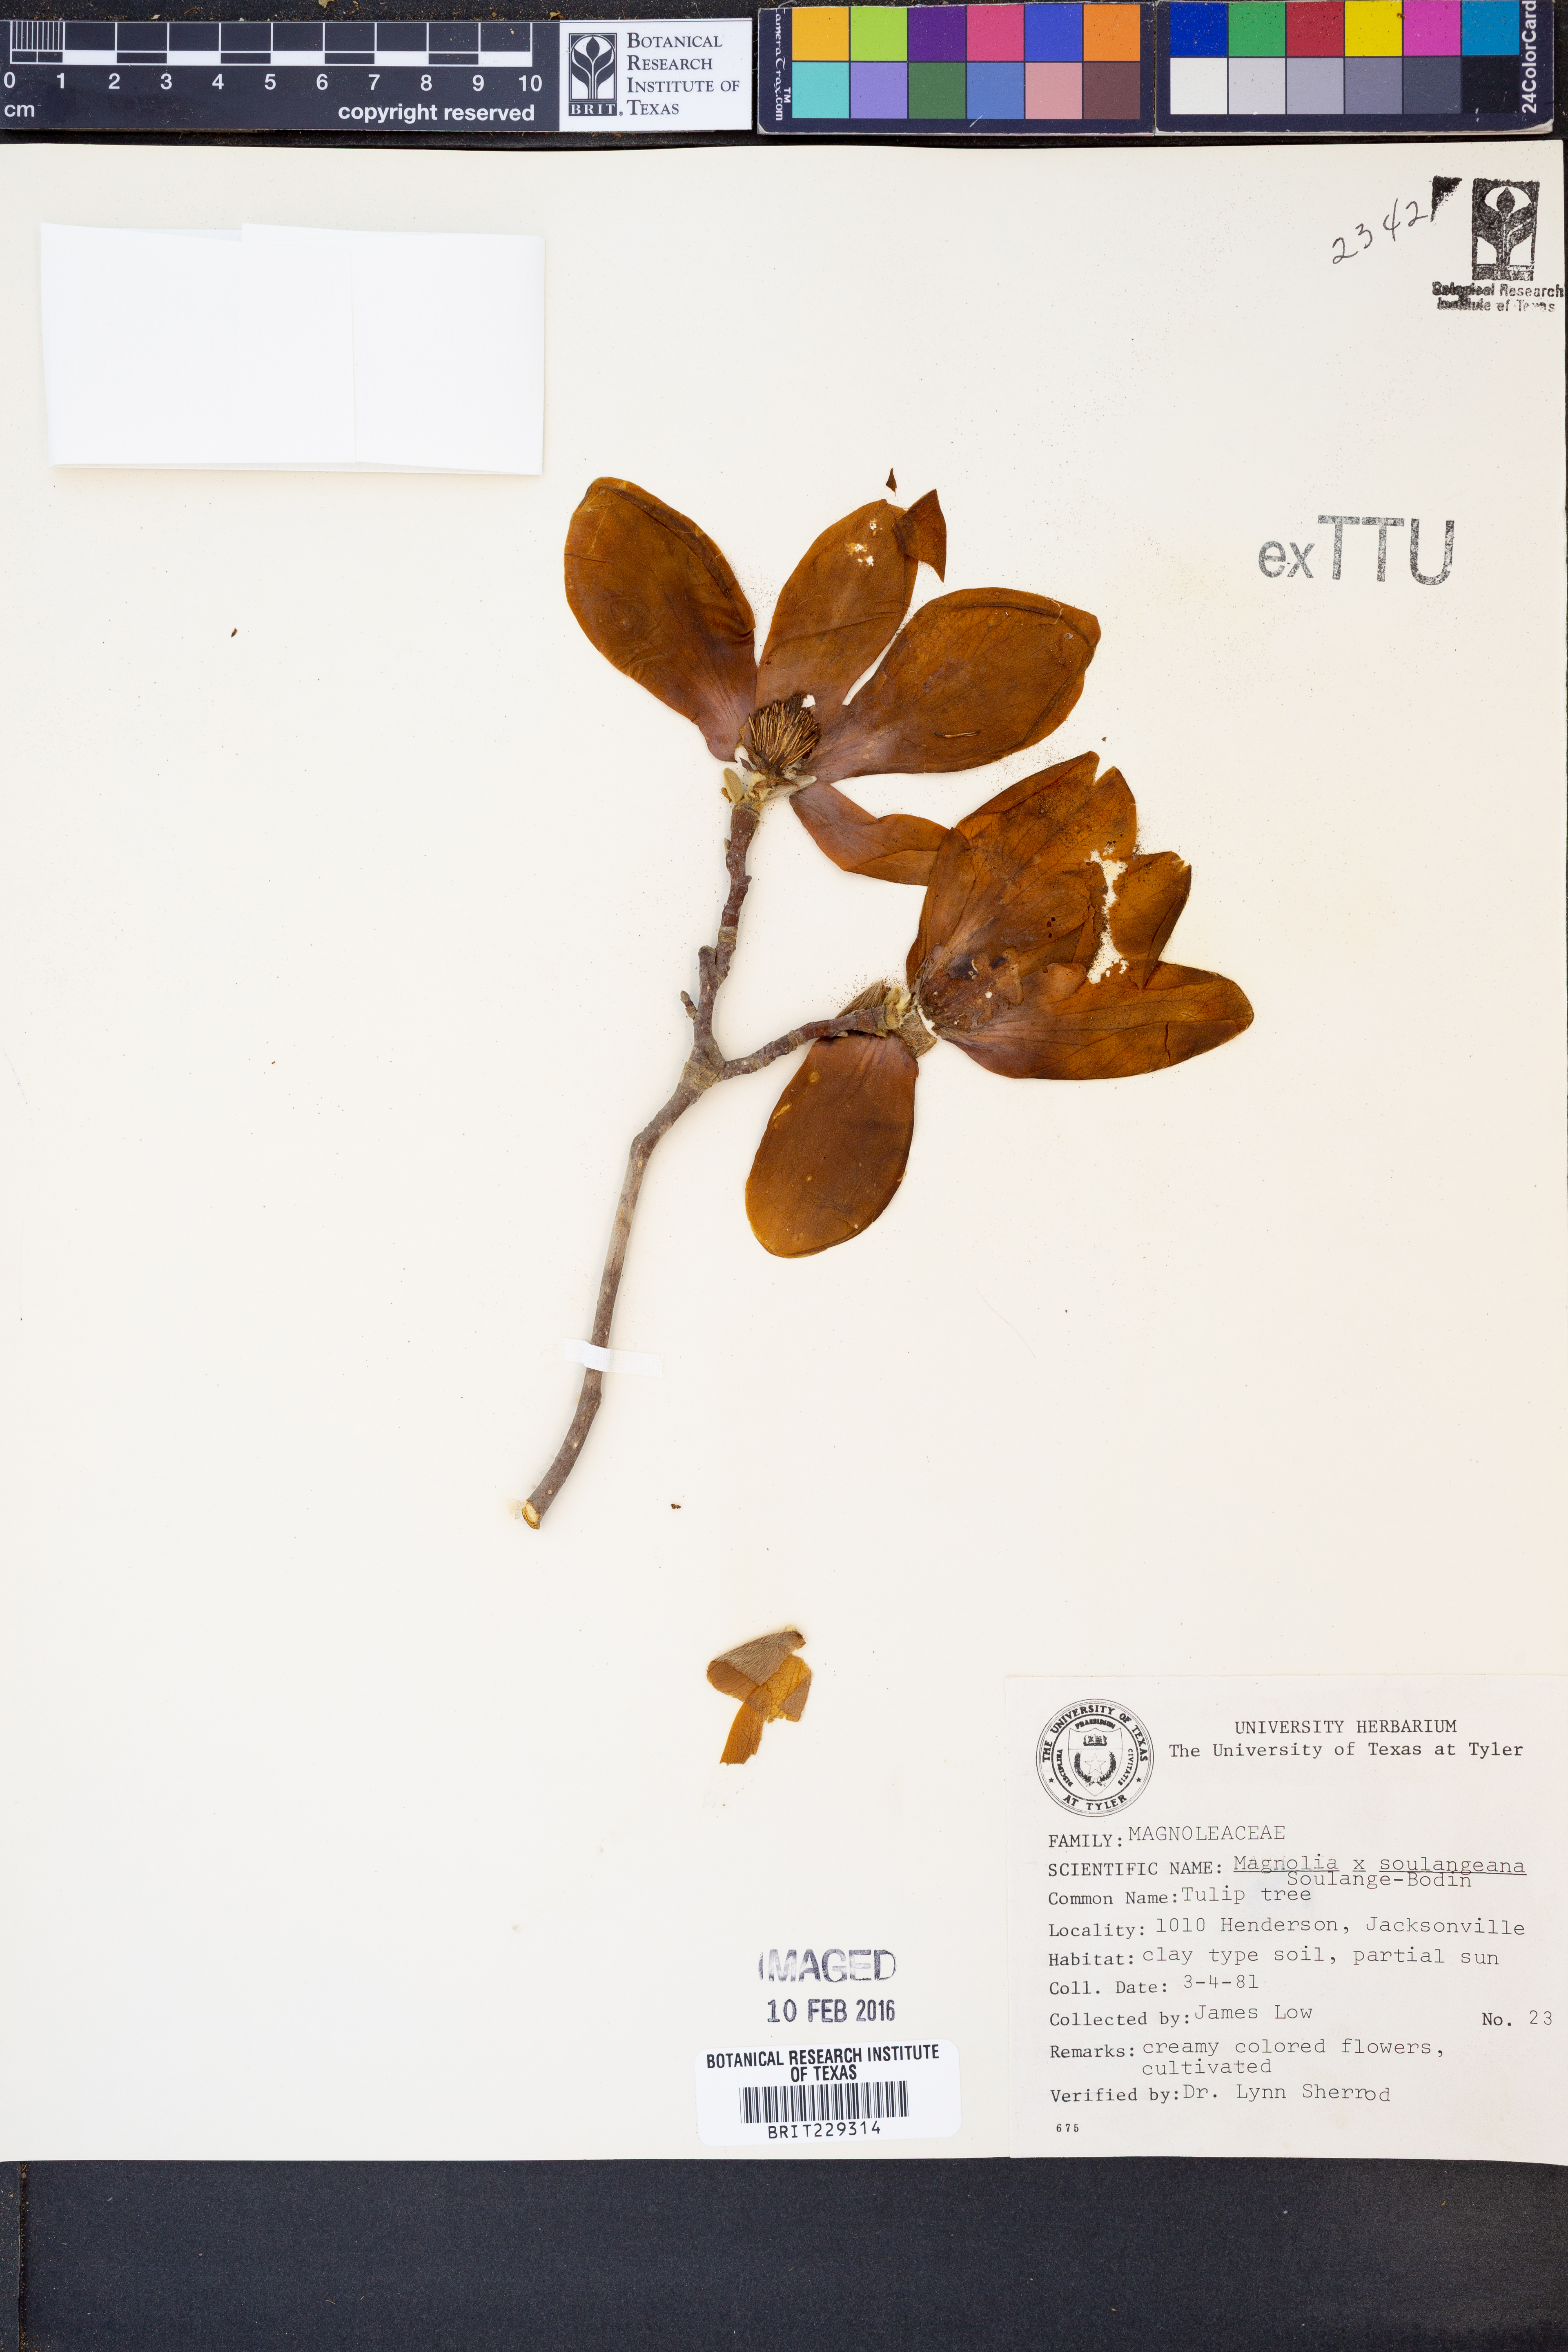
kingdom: Plantae
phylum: Tracheophyta
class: Magnoliopsida
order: Magnoliales
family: Magnoliaceae
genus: Magnolia
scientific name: Magnolia soulangeana
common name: Chinese magnolia
